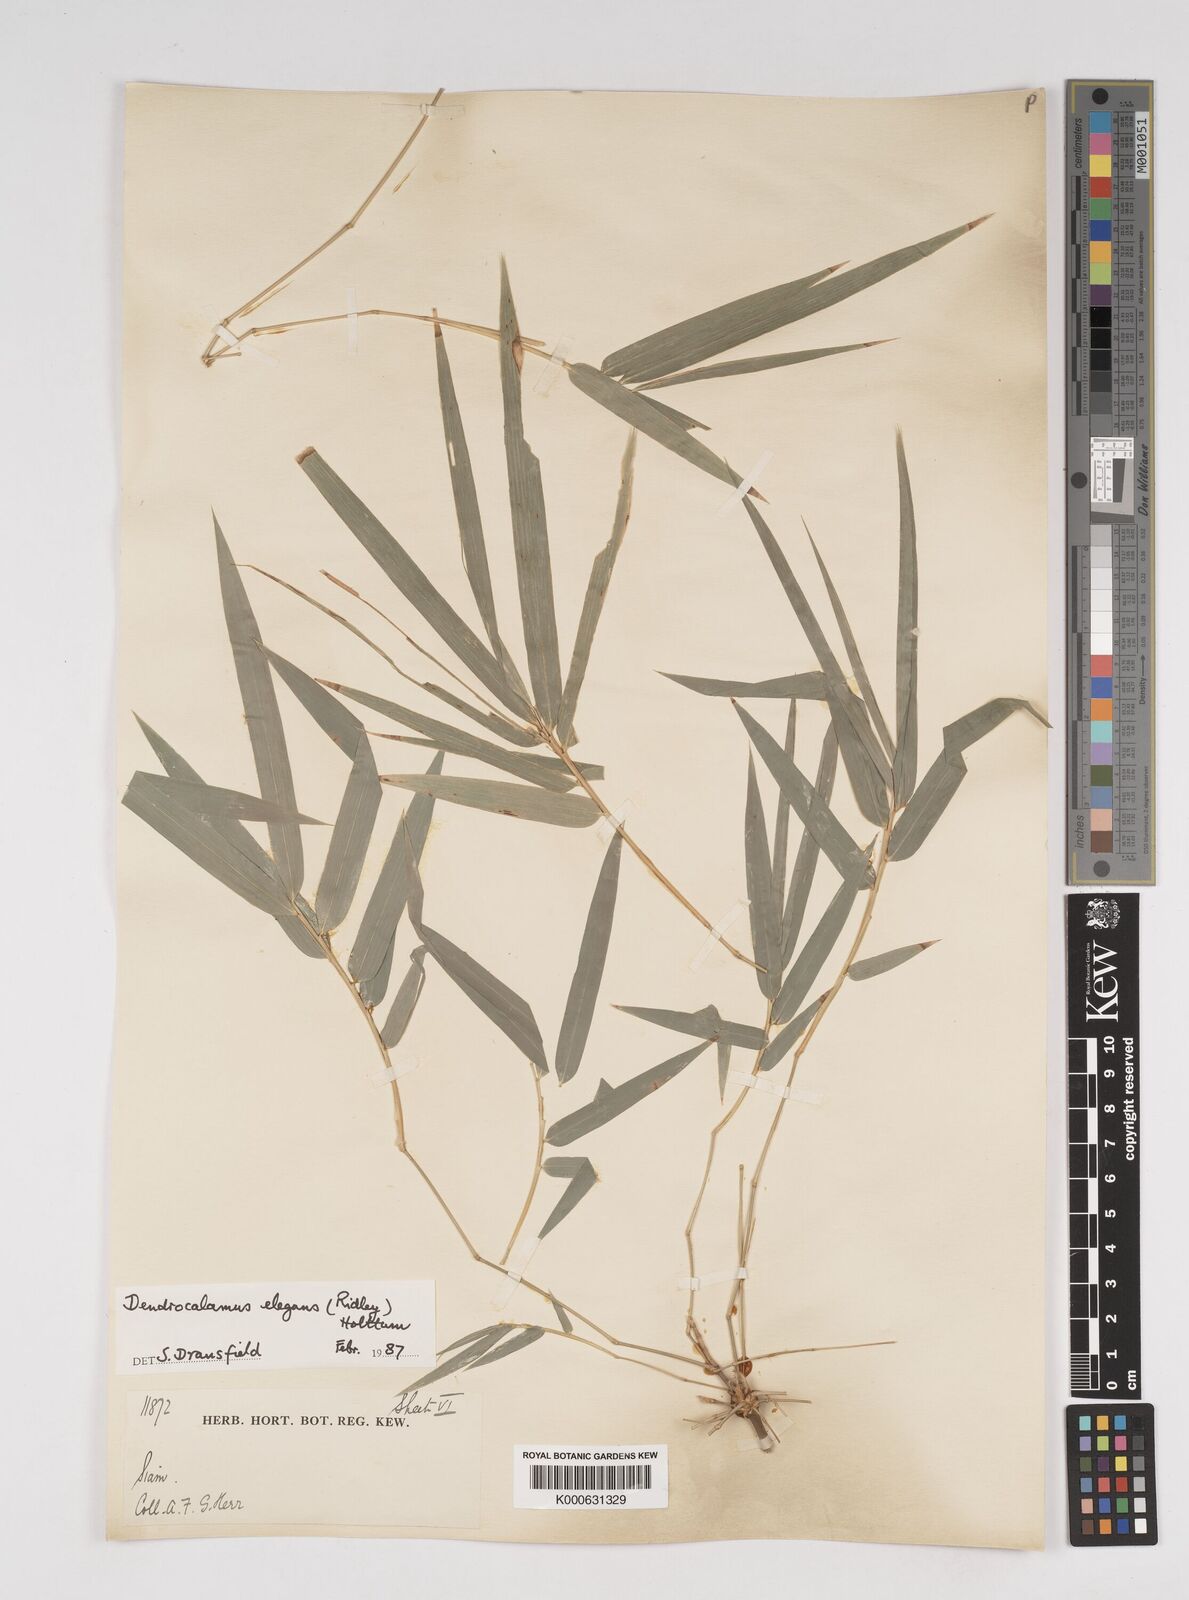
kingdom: Plantae
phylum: Tracheophyta
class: Liliopsida
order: Poales
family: Poaceae
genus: Dendrocalamus
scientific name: Dendrocalamus dumosus
